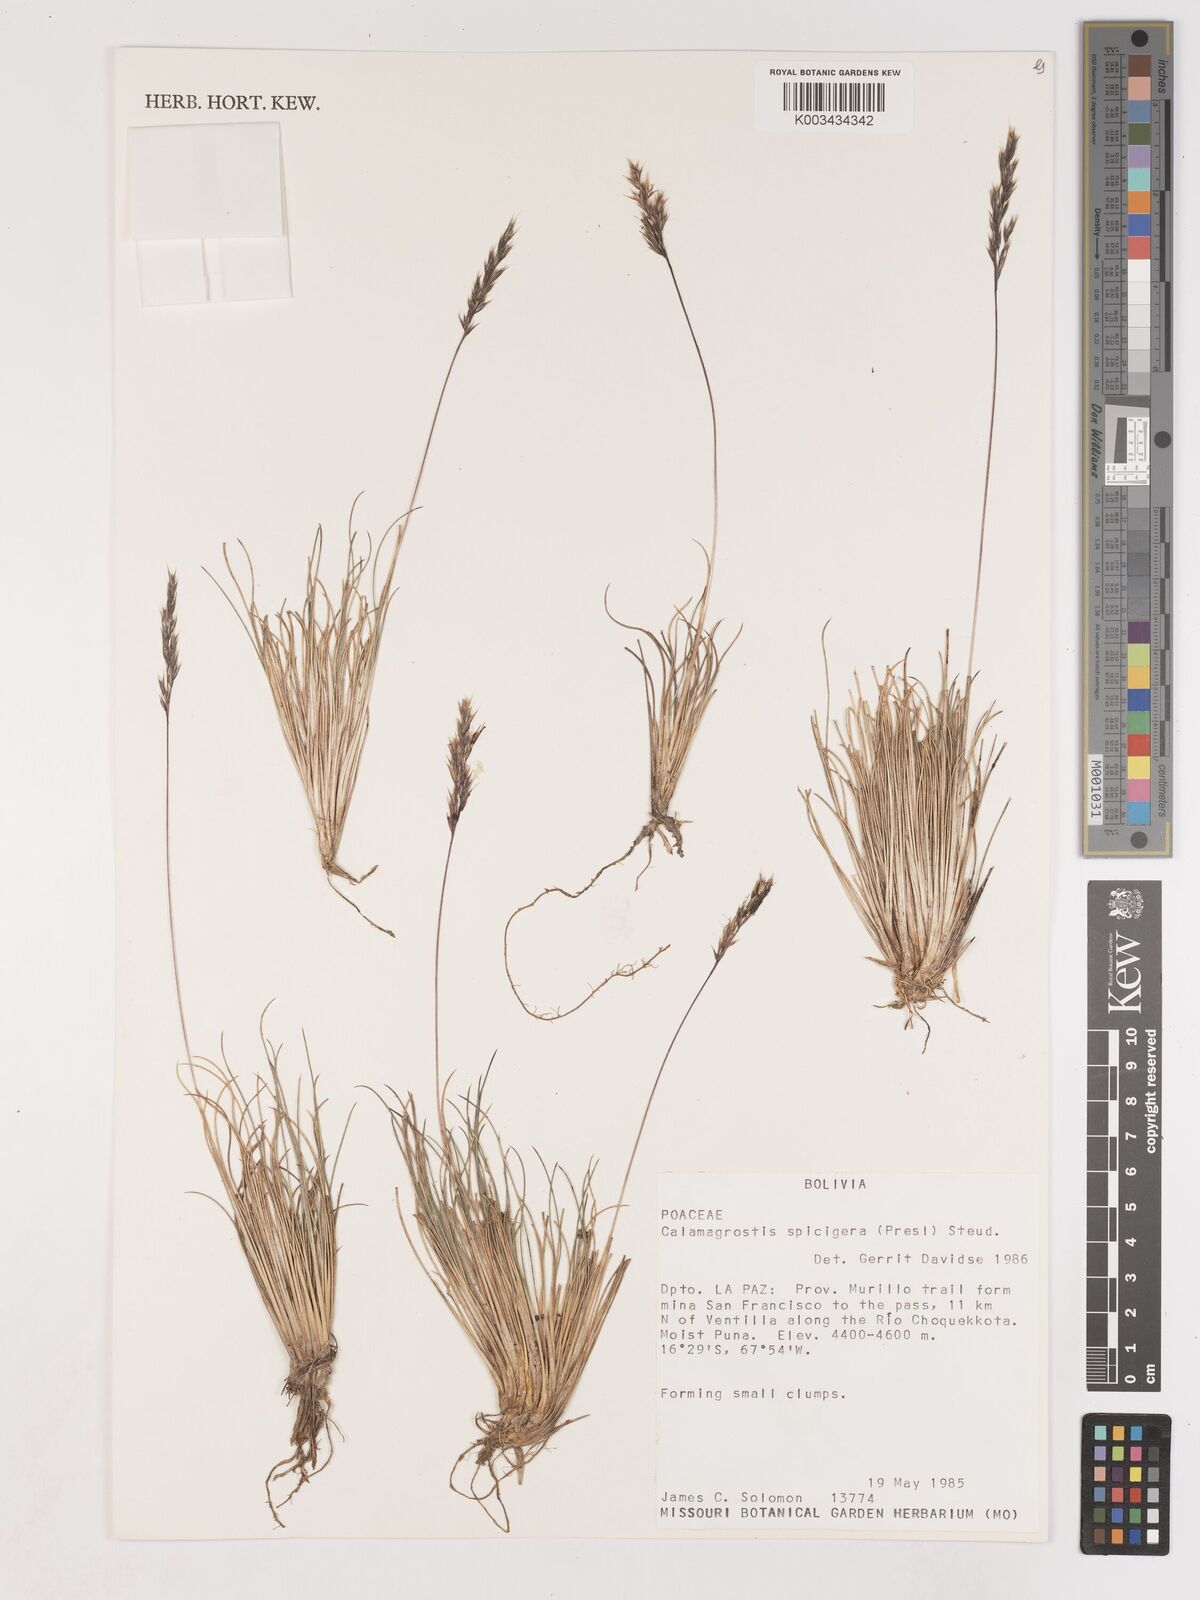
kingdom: Plantae
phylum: Tracheophyta
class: Liliopsida
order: Poales
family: Poaceae
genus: Cinnagrostis
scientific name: Cinnagrostis violacea
